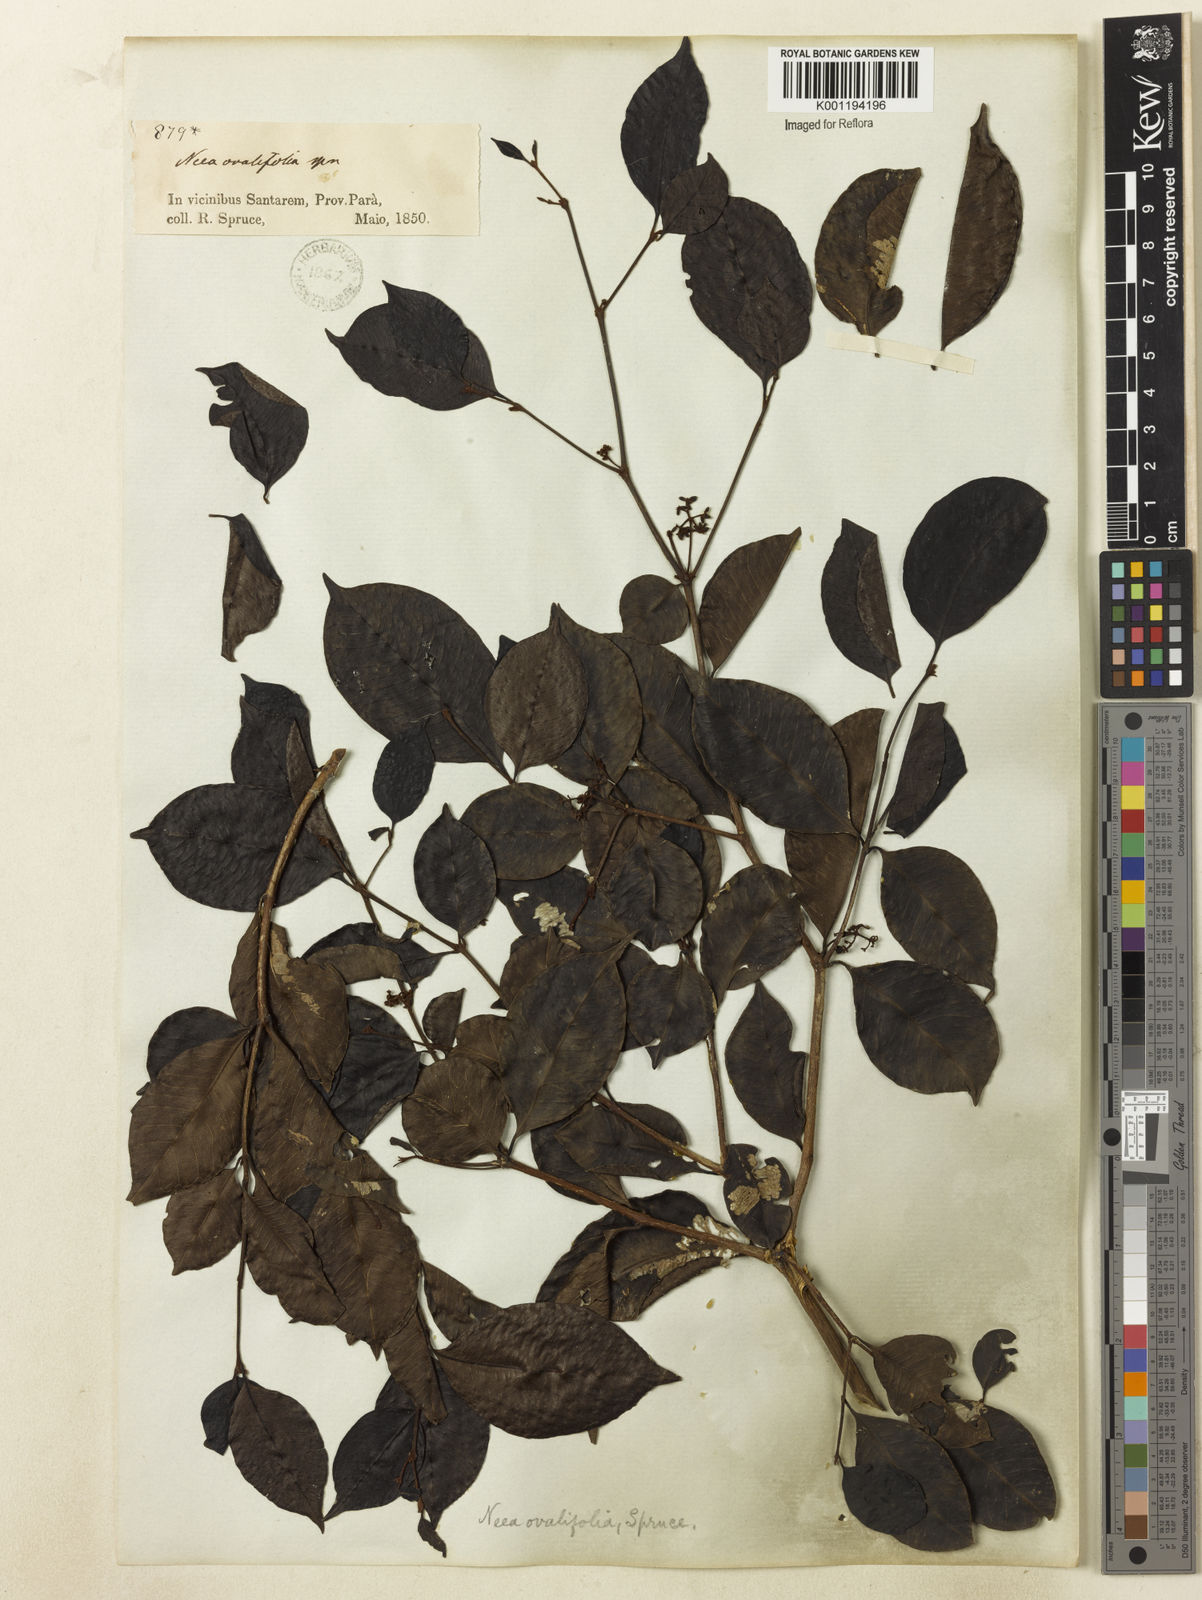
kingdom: Plantae
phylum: Tracheophyta
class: Magnoliopsida
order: Caryophyllales
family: Nyctaginaceae
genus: Neea
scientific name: Neea ovalifolia
